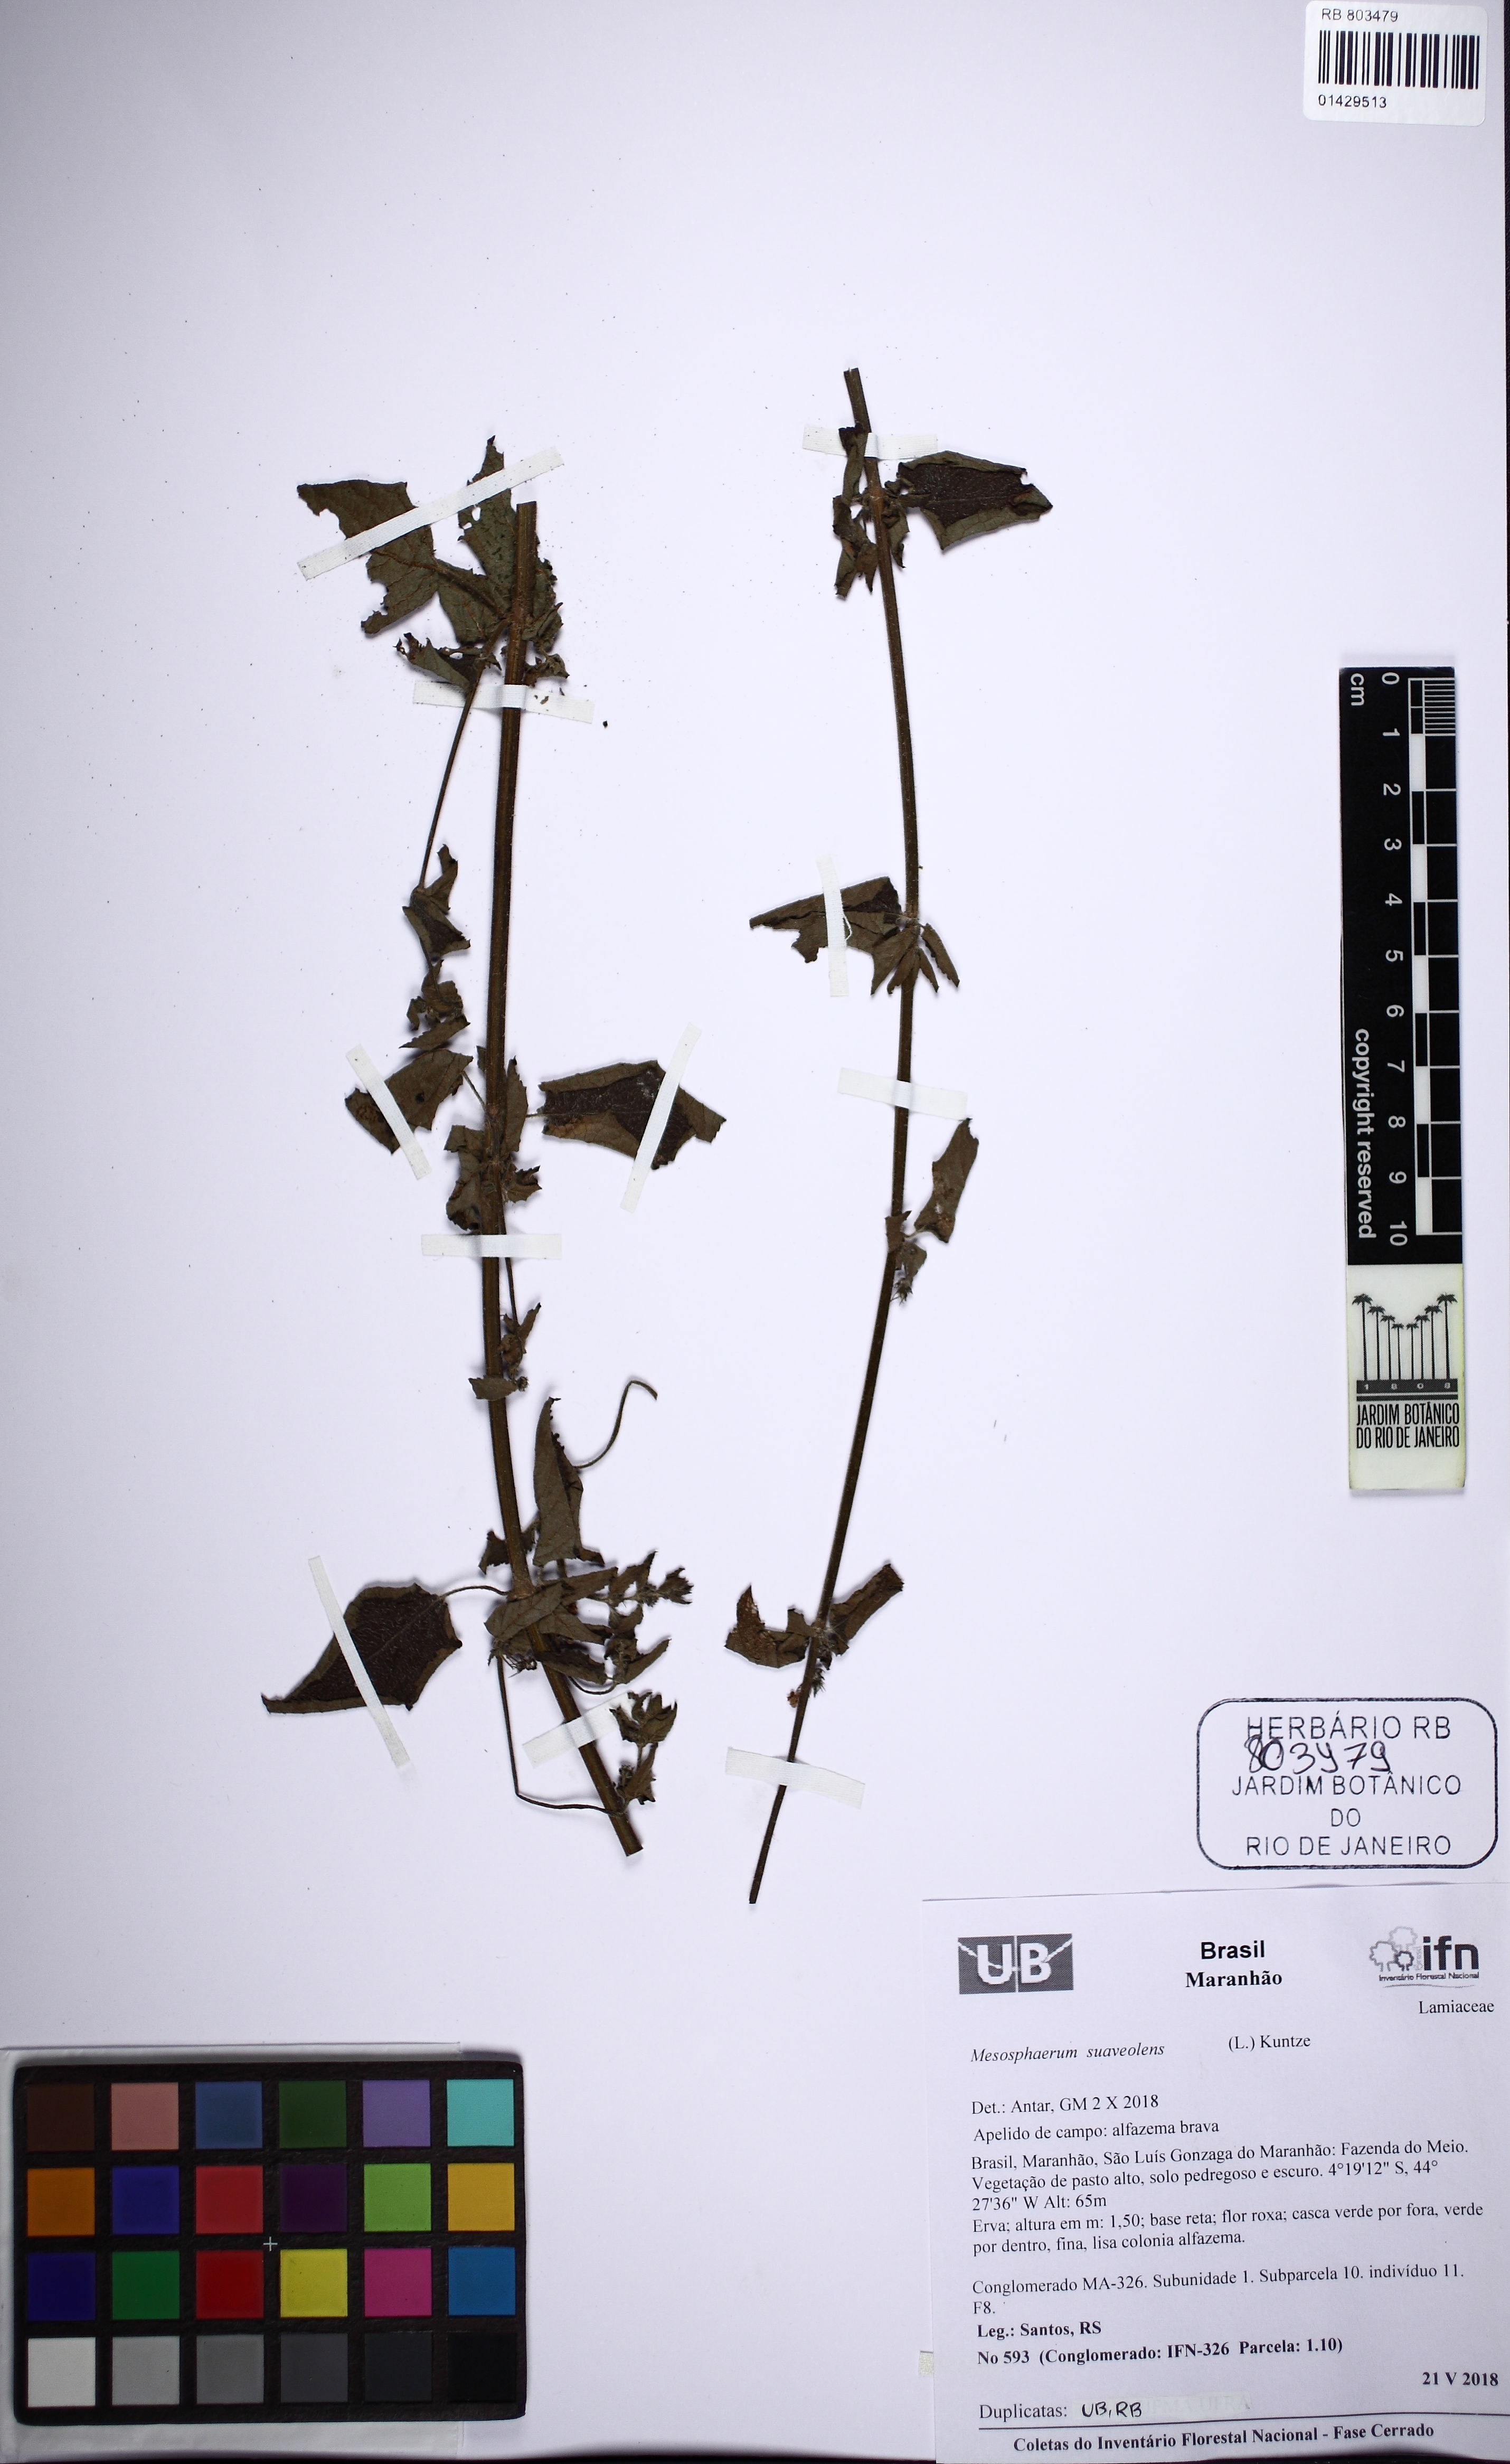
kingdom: Plantae
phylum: Tracheophyta
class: Magnoliopsida
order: Lamiales
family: Lamiaceae
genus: Mesosphaerum
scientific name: Mesosphaerum suaveolens
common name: Pignut
